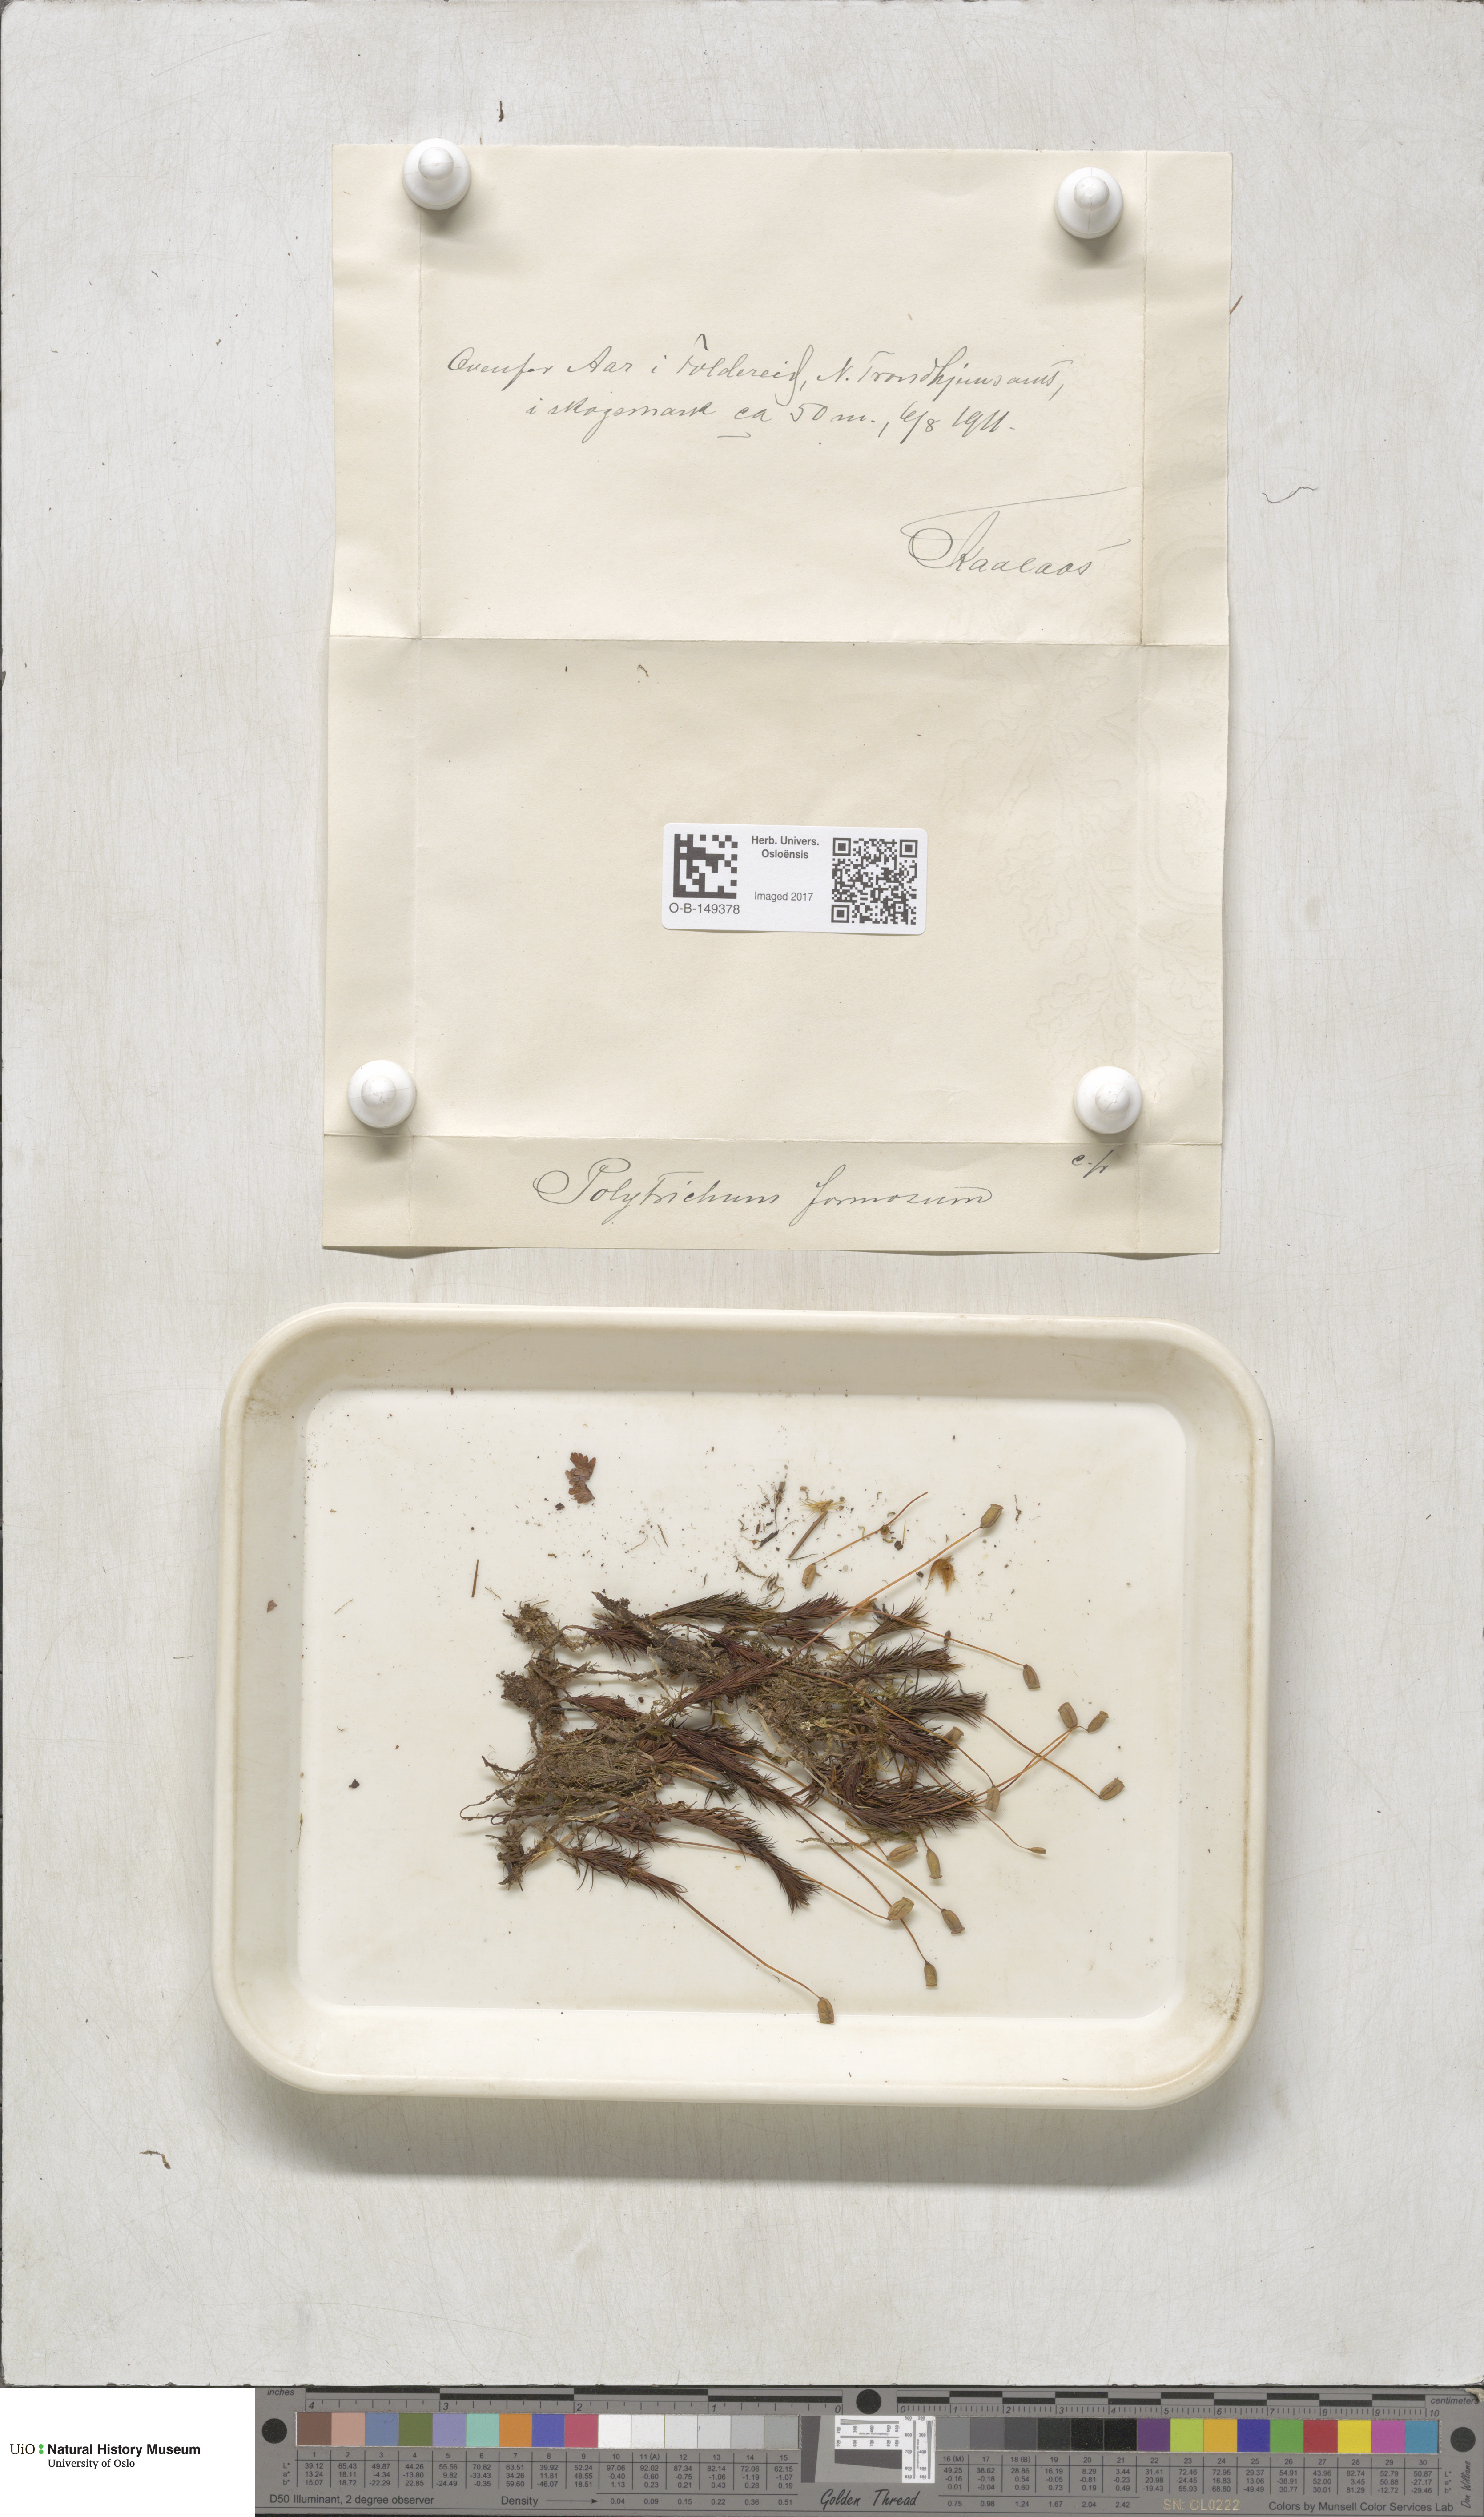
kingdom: Plantae
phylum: Bryophyta
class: Polytrichopsida
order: Polytrichales
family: Polytrichaceae
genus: Polytrichum
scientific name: Polytrichum formosum
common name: Bank haircap moss
